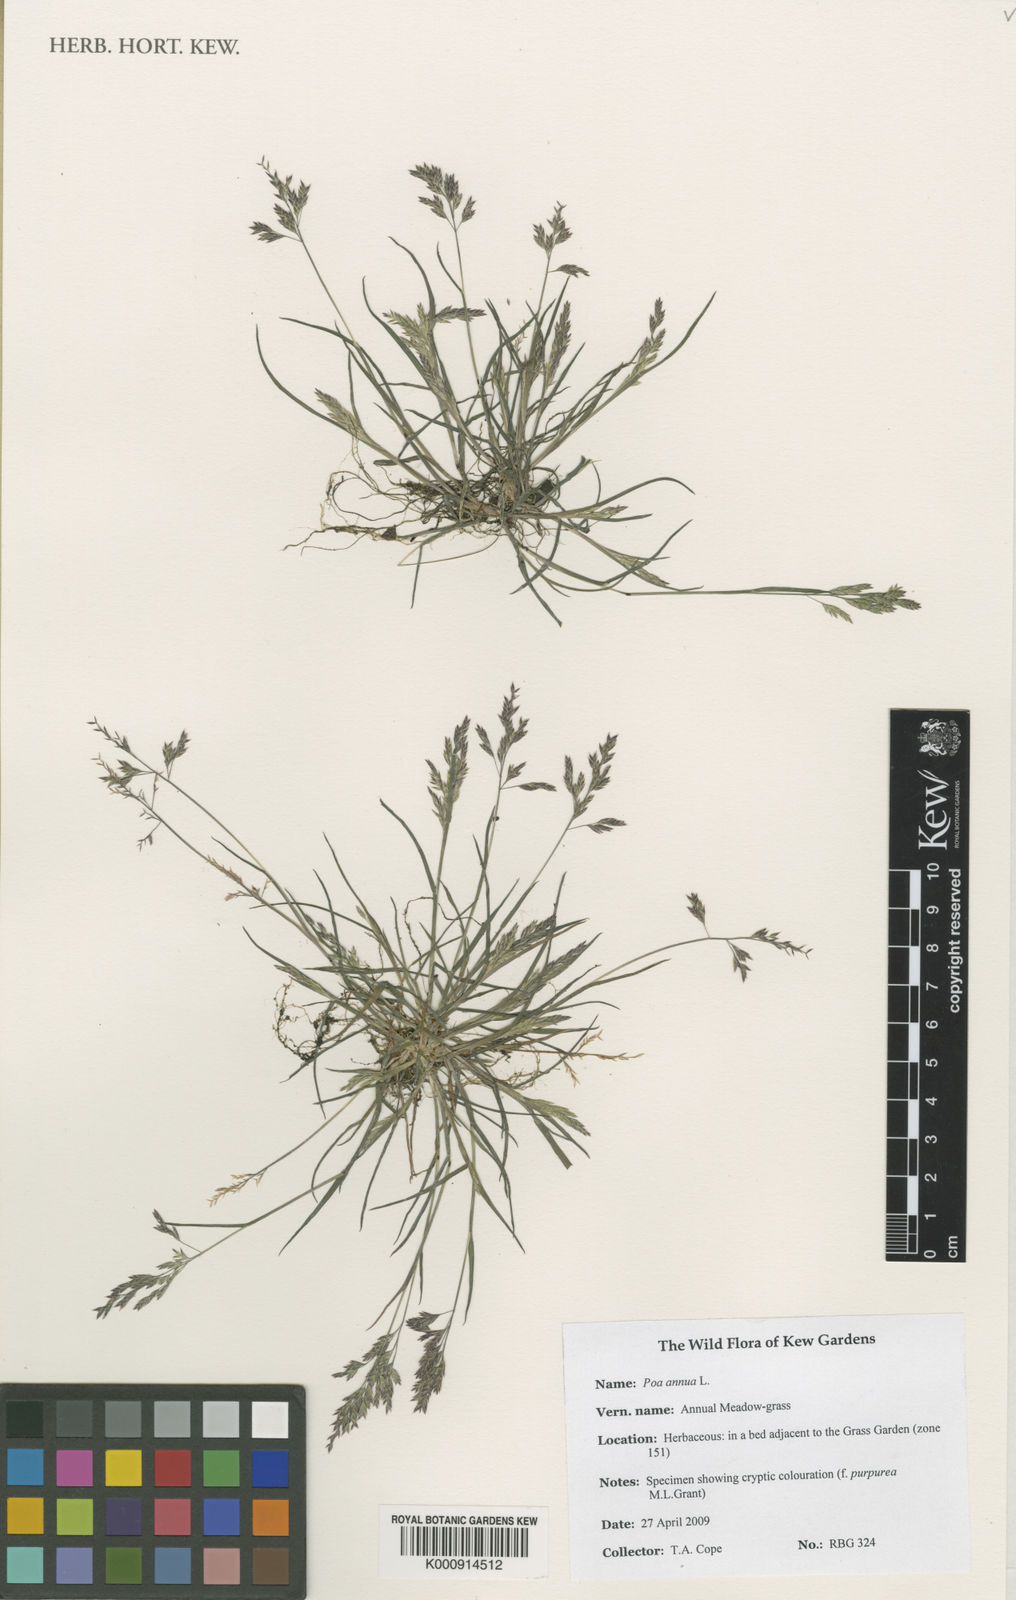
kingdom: Plantae
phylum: Tracheophyta
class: Liliopsida
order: Poales
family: Poaceae
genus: Poa
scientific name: Poa annua
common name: Annual bluegrass
